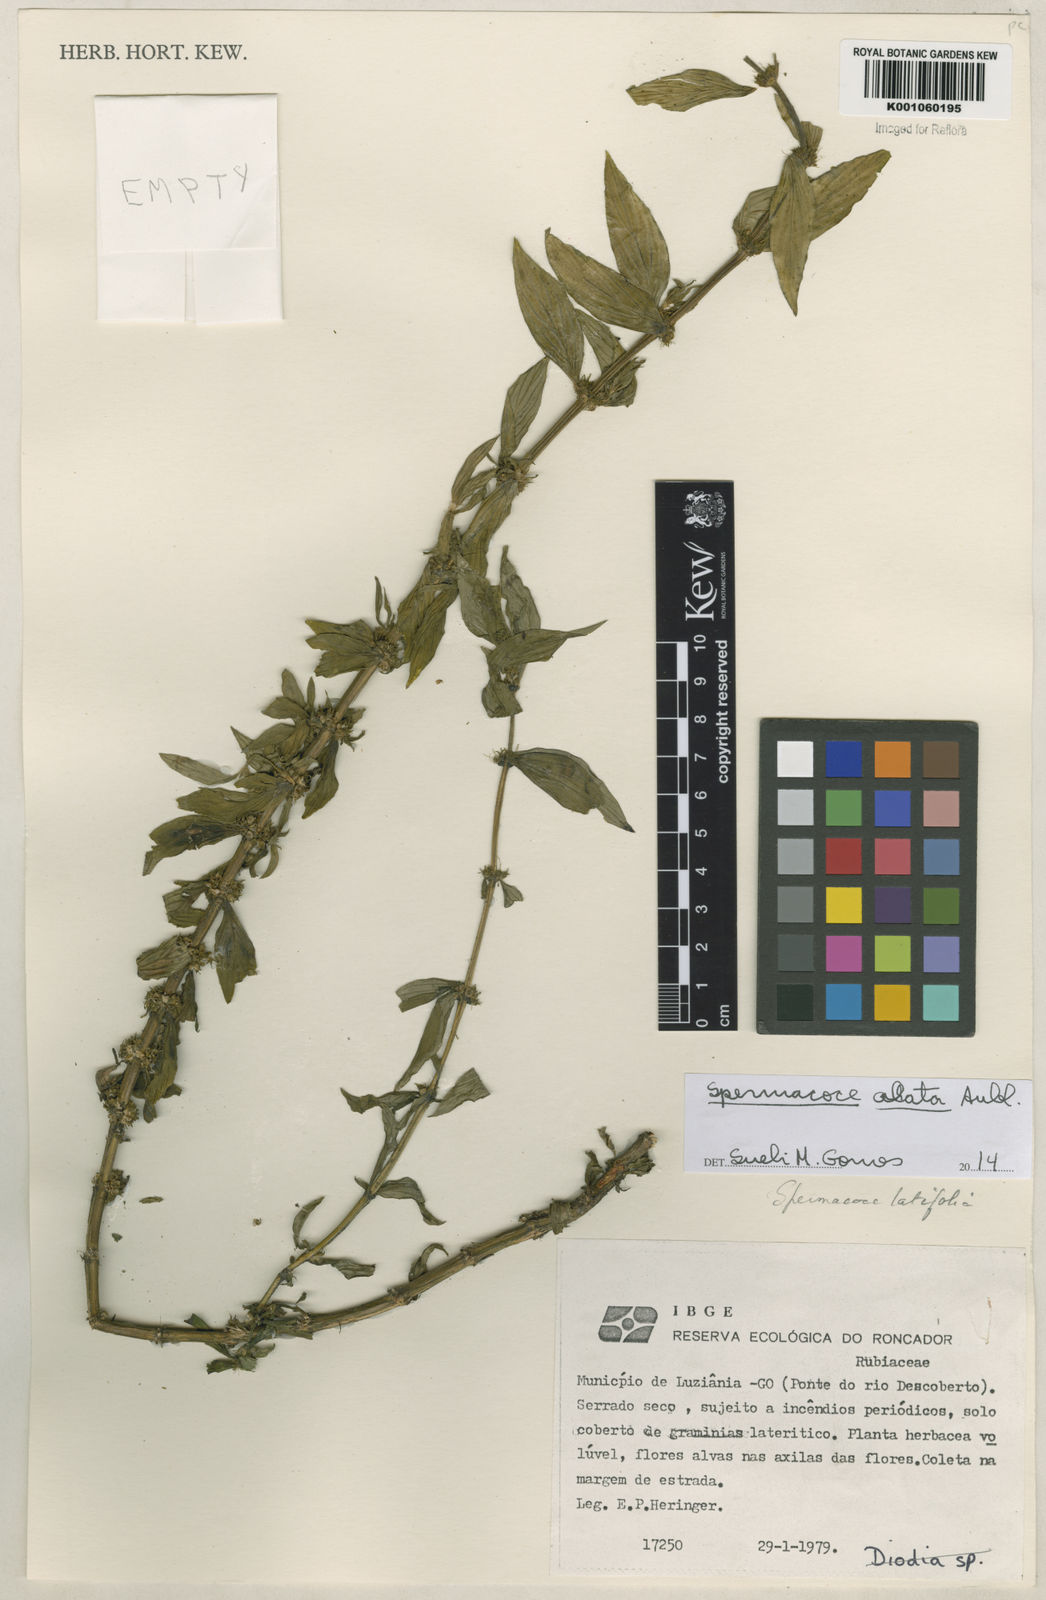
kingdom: Plantae
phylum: Tracheophyta
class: Magnoliopsida
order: Gentianales
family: Rubiaceae
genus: Spermacoce
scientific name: Spermacoce
